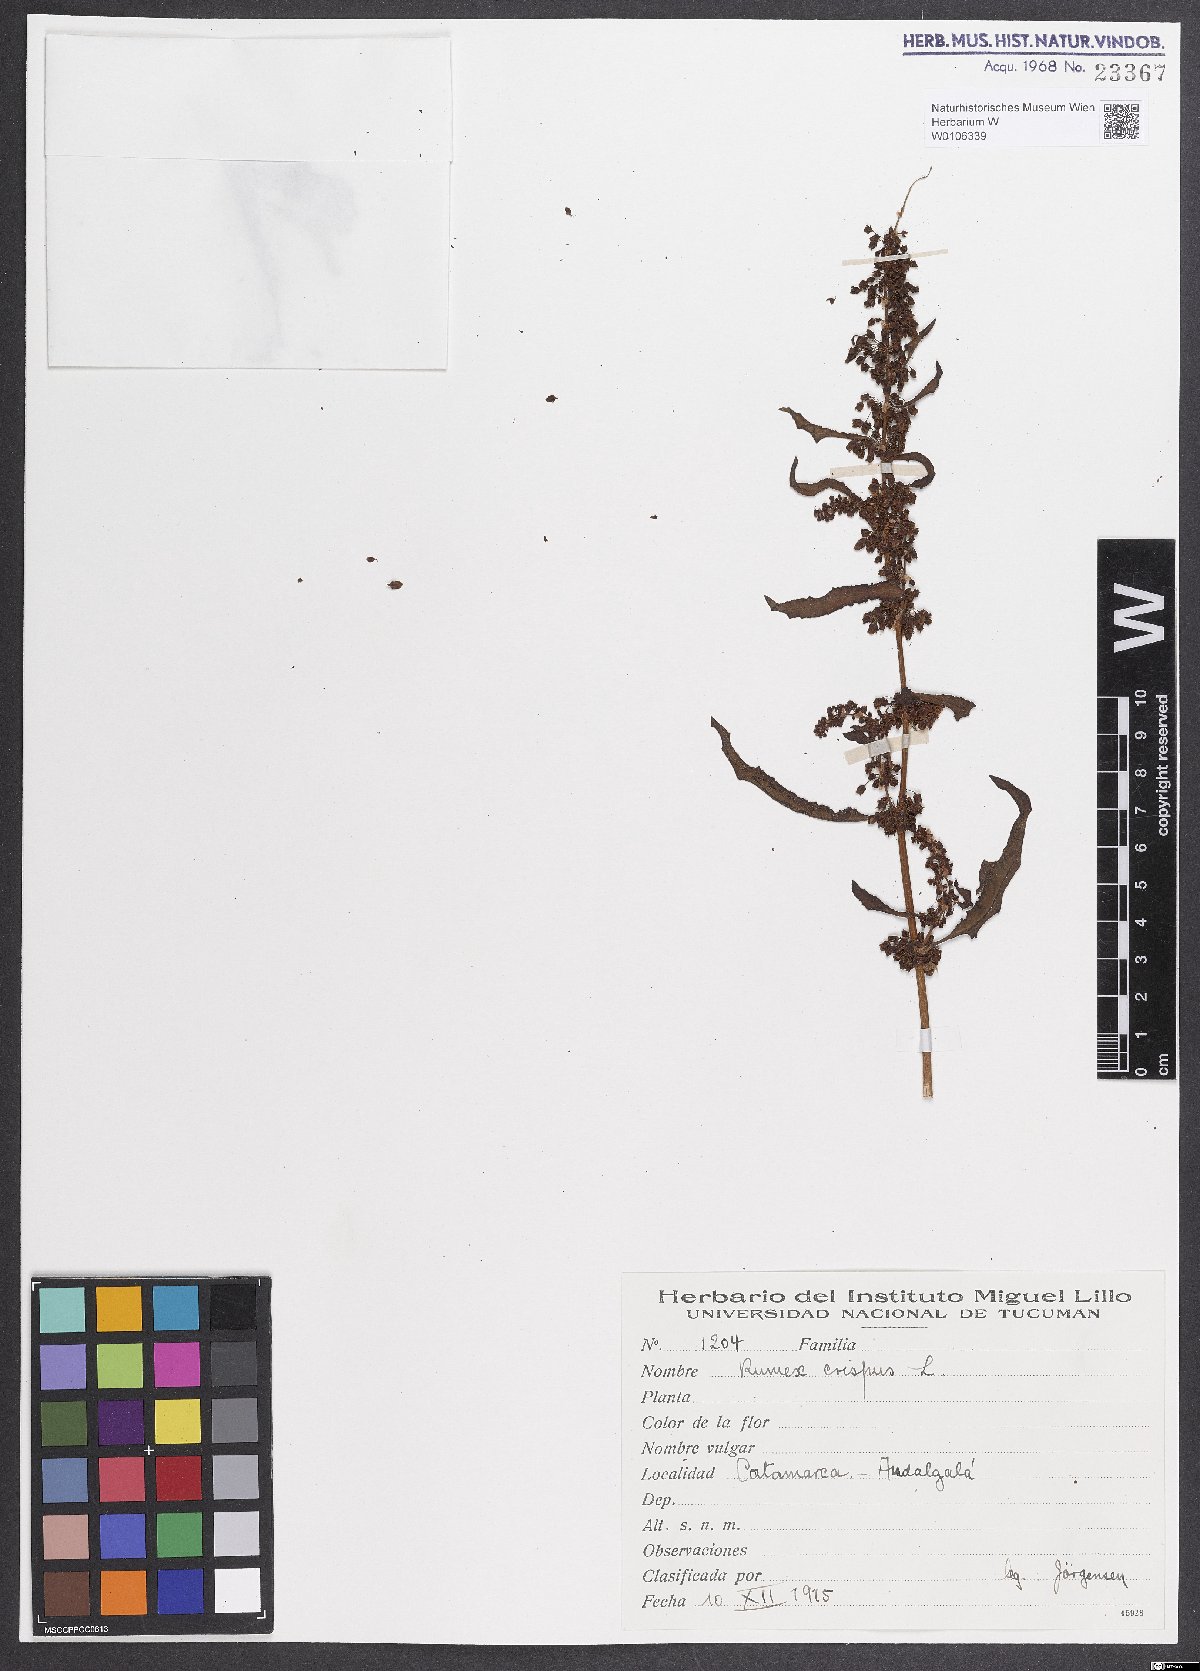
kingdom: Plantae
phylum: Tracheophyta
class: Magnoliopsida
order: Caryophyllales
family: Polygonaceae
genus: Rumex
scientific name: Rumex crispus
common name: Curled dock
